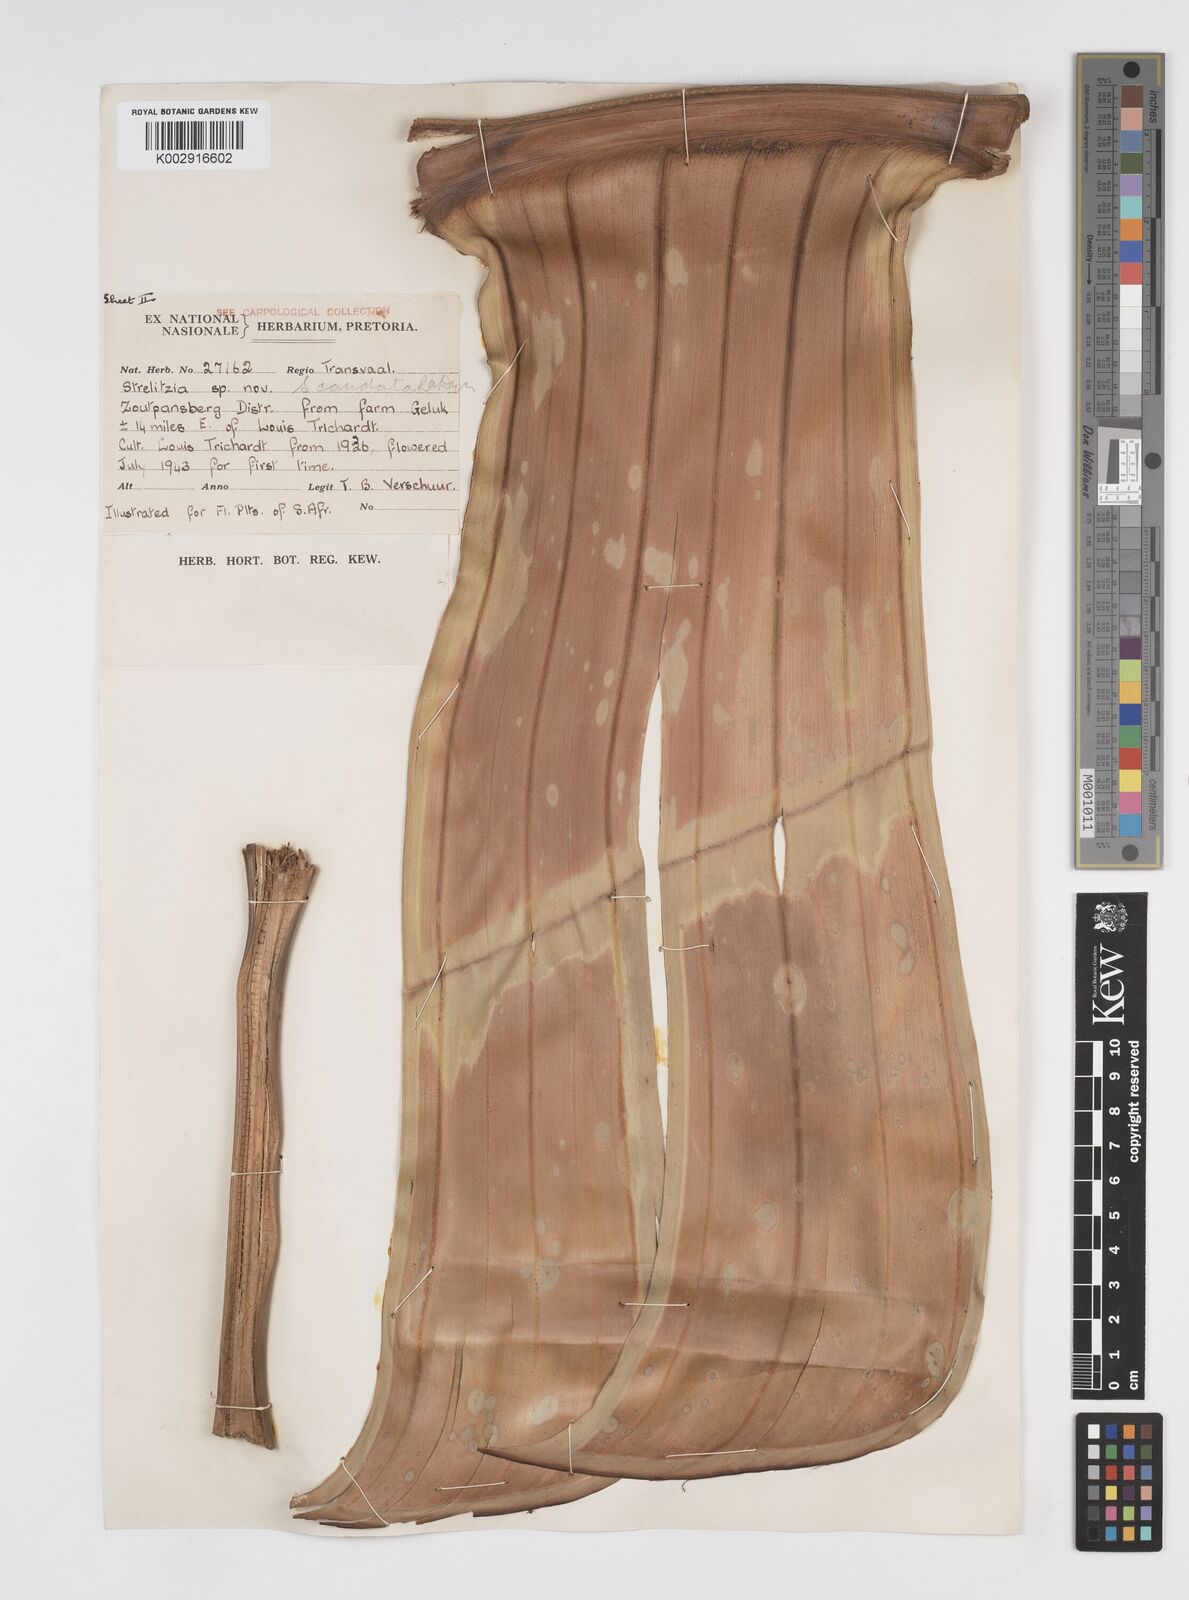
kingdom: Plantae
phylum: Tracheophyta
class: Liliopsida
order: Zingiberales
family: Strelitziaceae
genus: Strelitzia
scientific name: Strelitzia caudata
